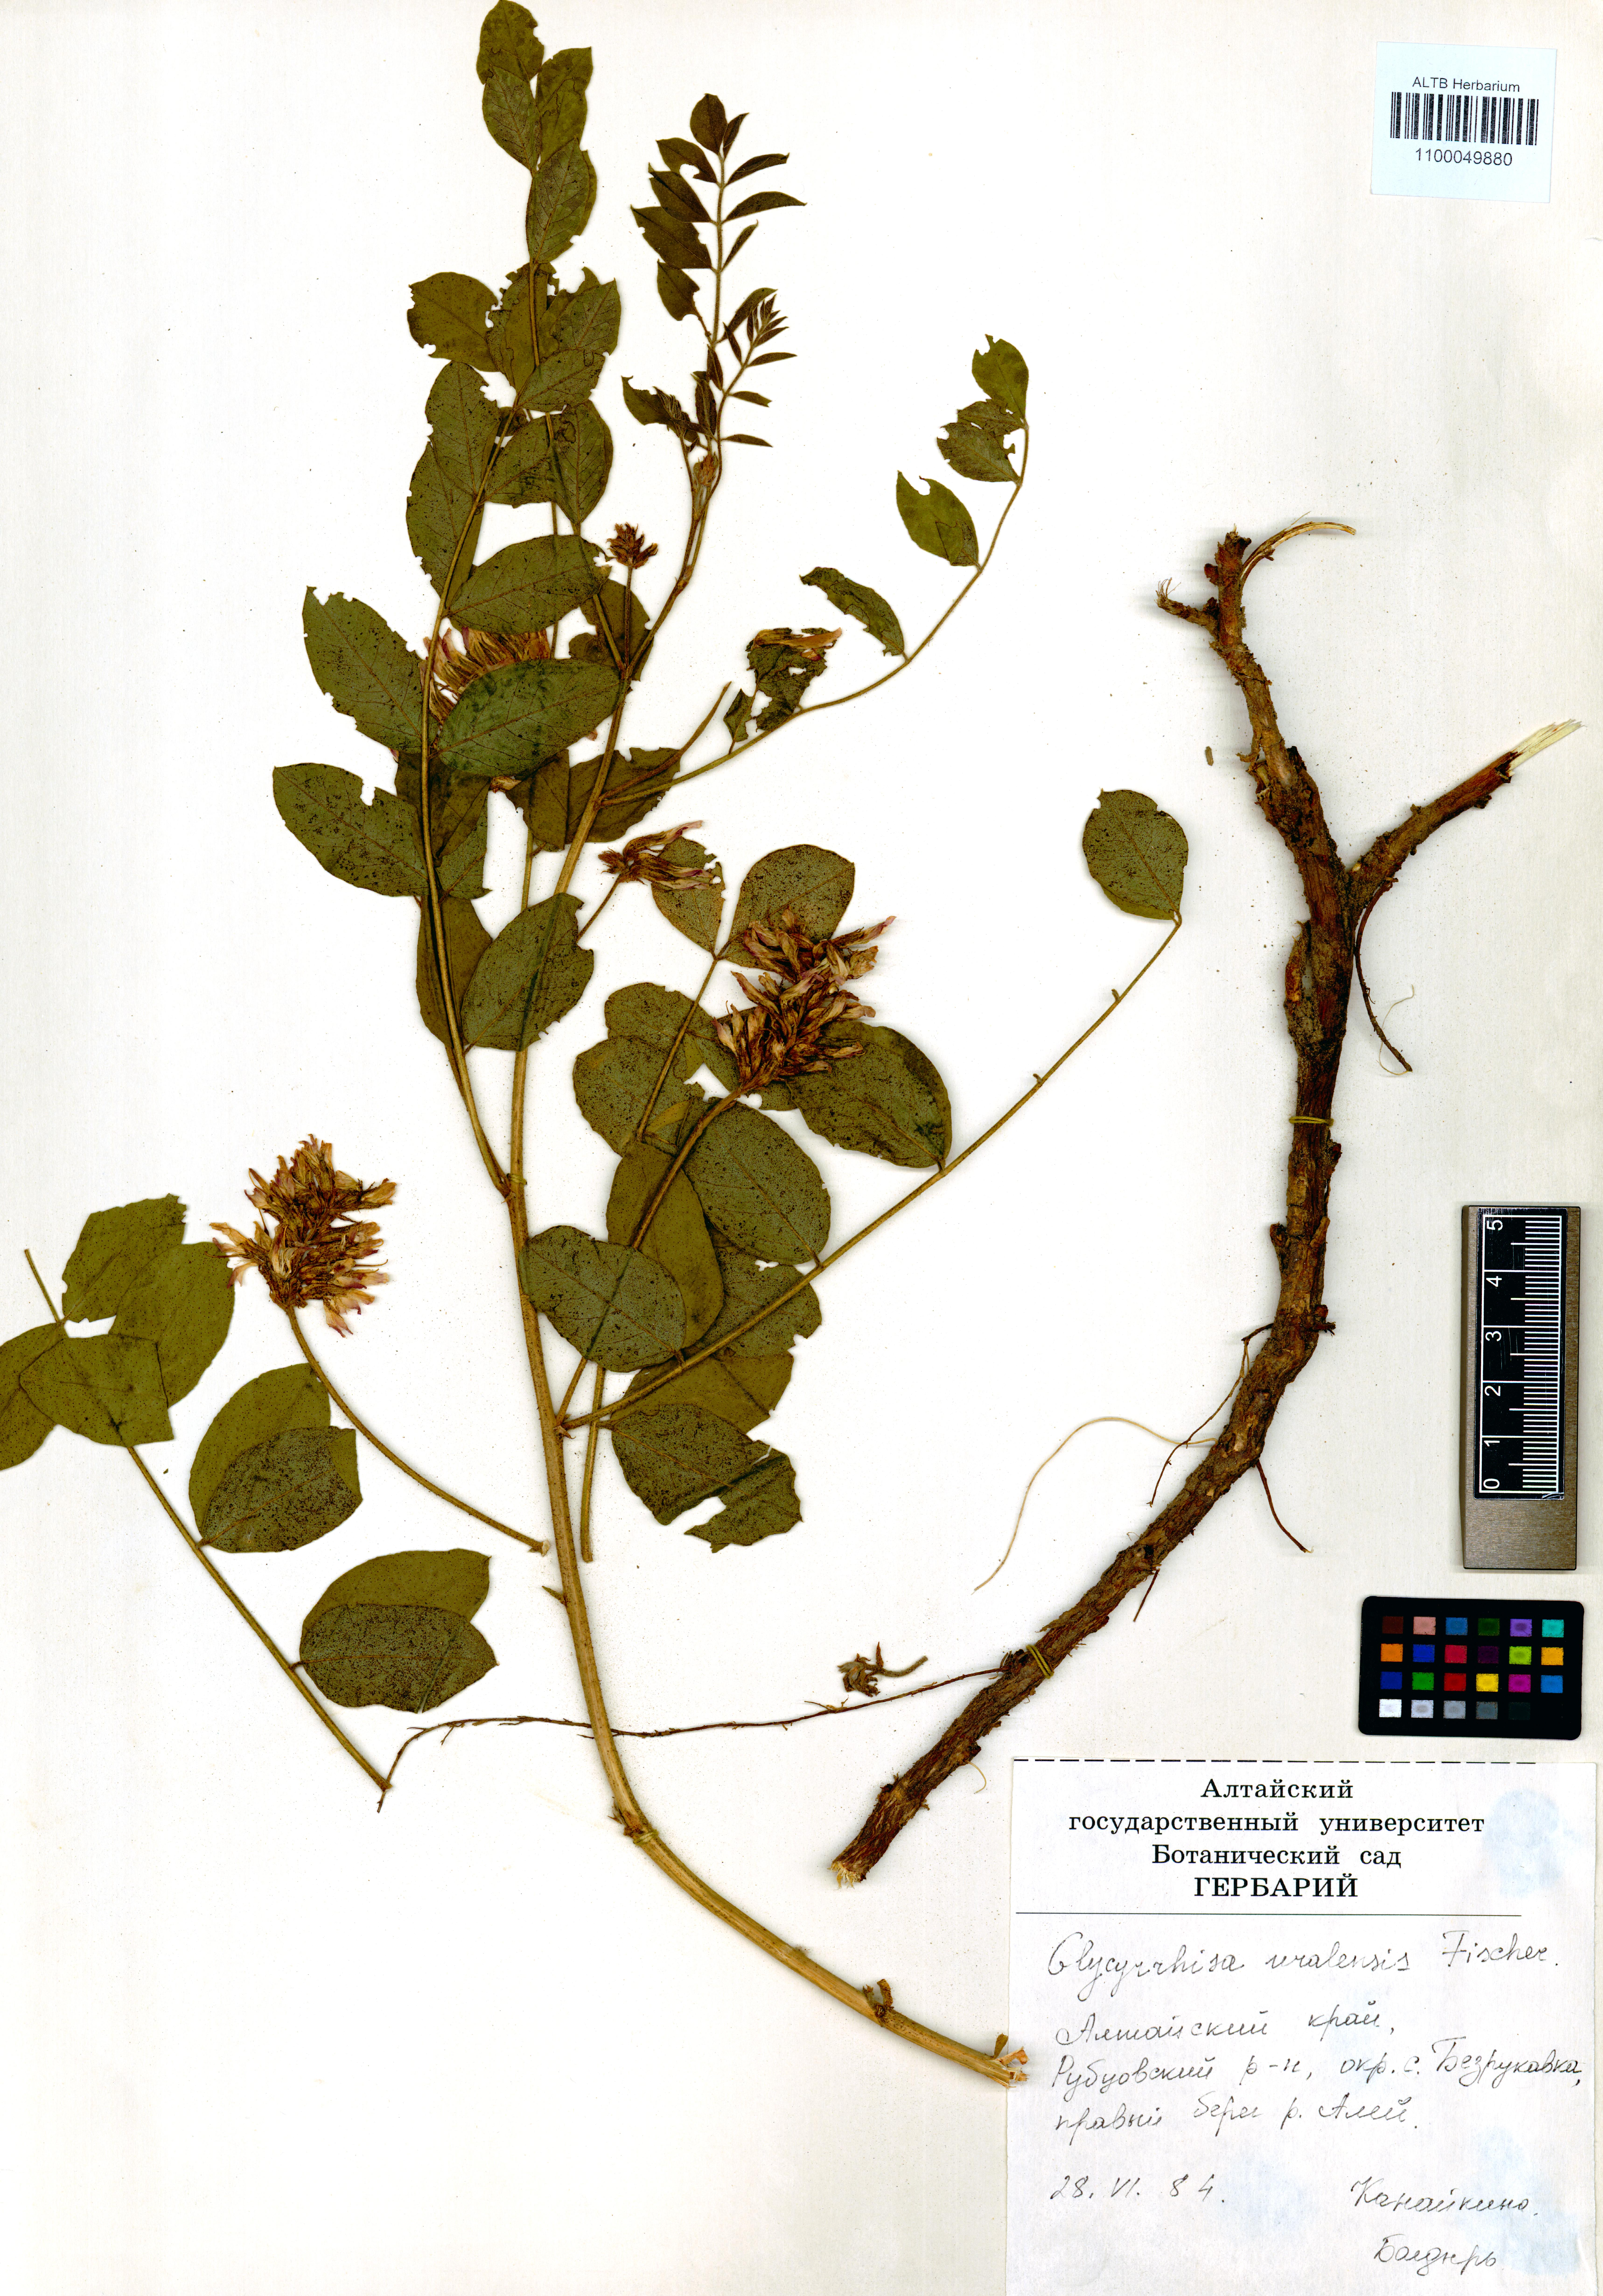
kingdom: Plantae
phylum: Tracheophyta
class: Magnoliopsida
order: Fabales
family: Fabaceae
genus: Glycyrrhiza
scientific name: Glycyrrhiza uralensis
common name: Chinese licorice
